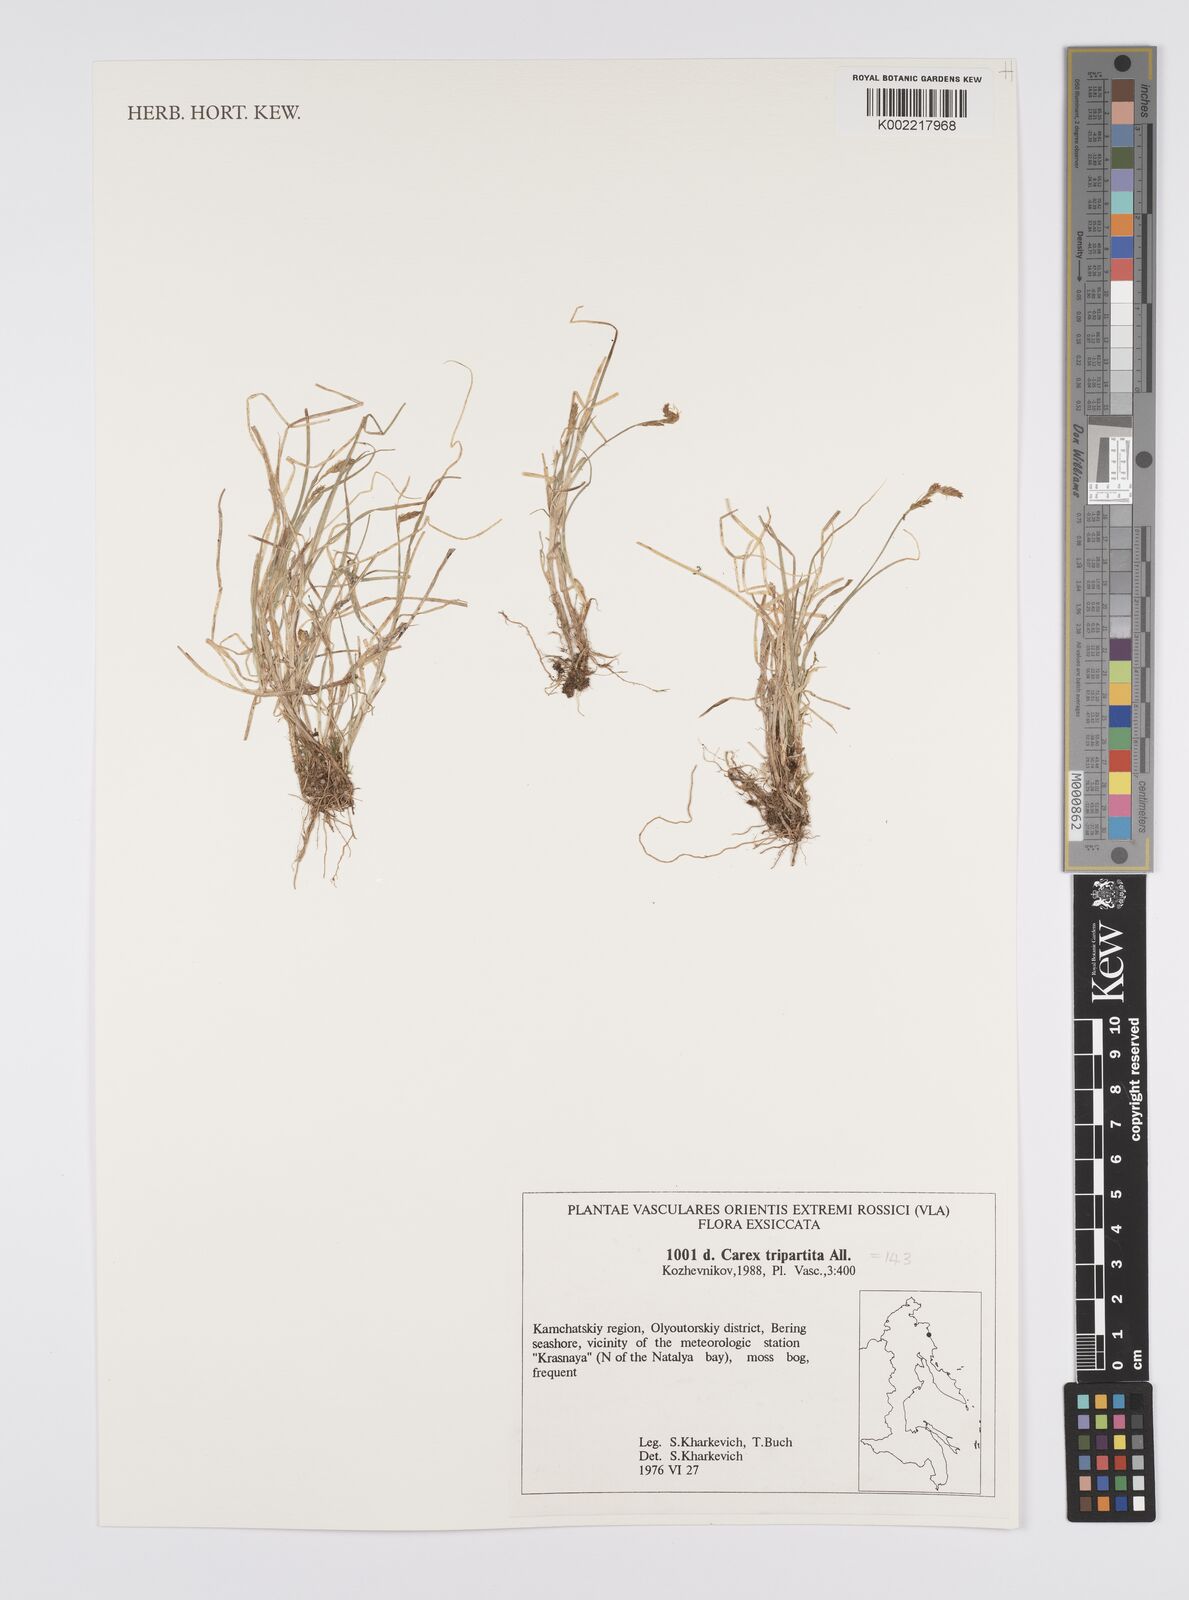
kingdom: Plantae
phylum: Tracheophyta
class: Liliopsida
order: Poales
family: Cyperaceae
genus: Carex
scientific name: Carex curvula
